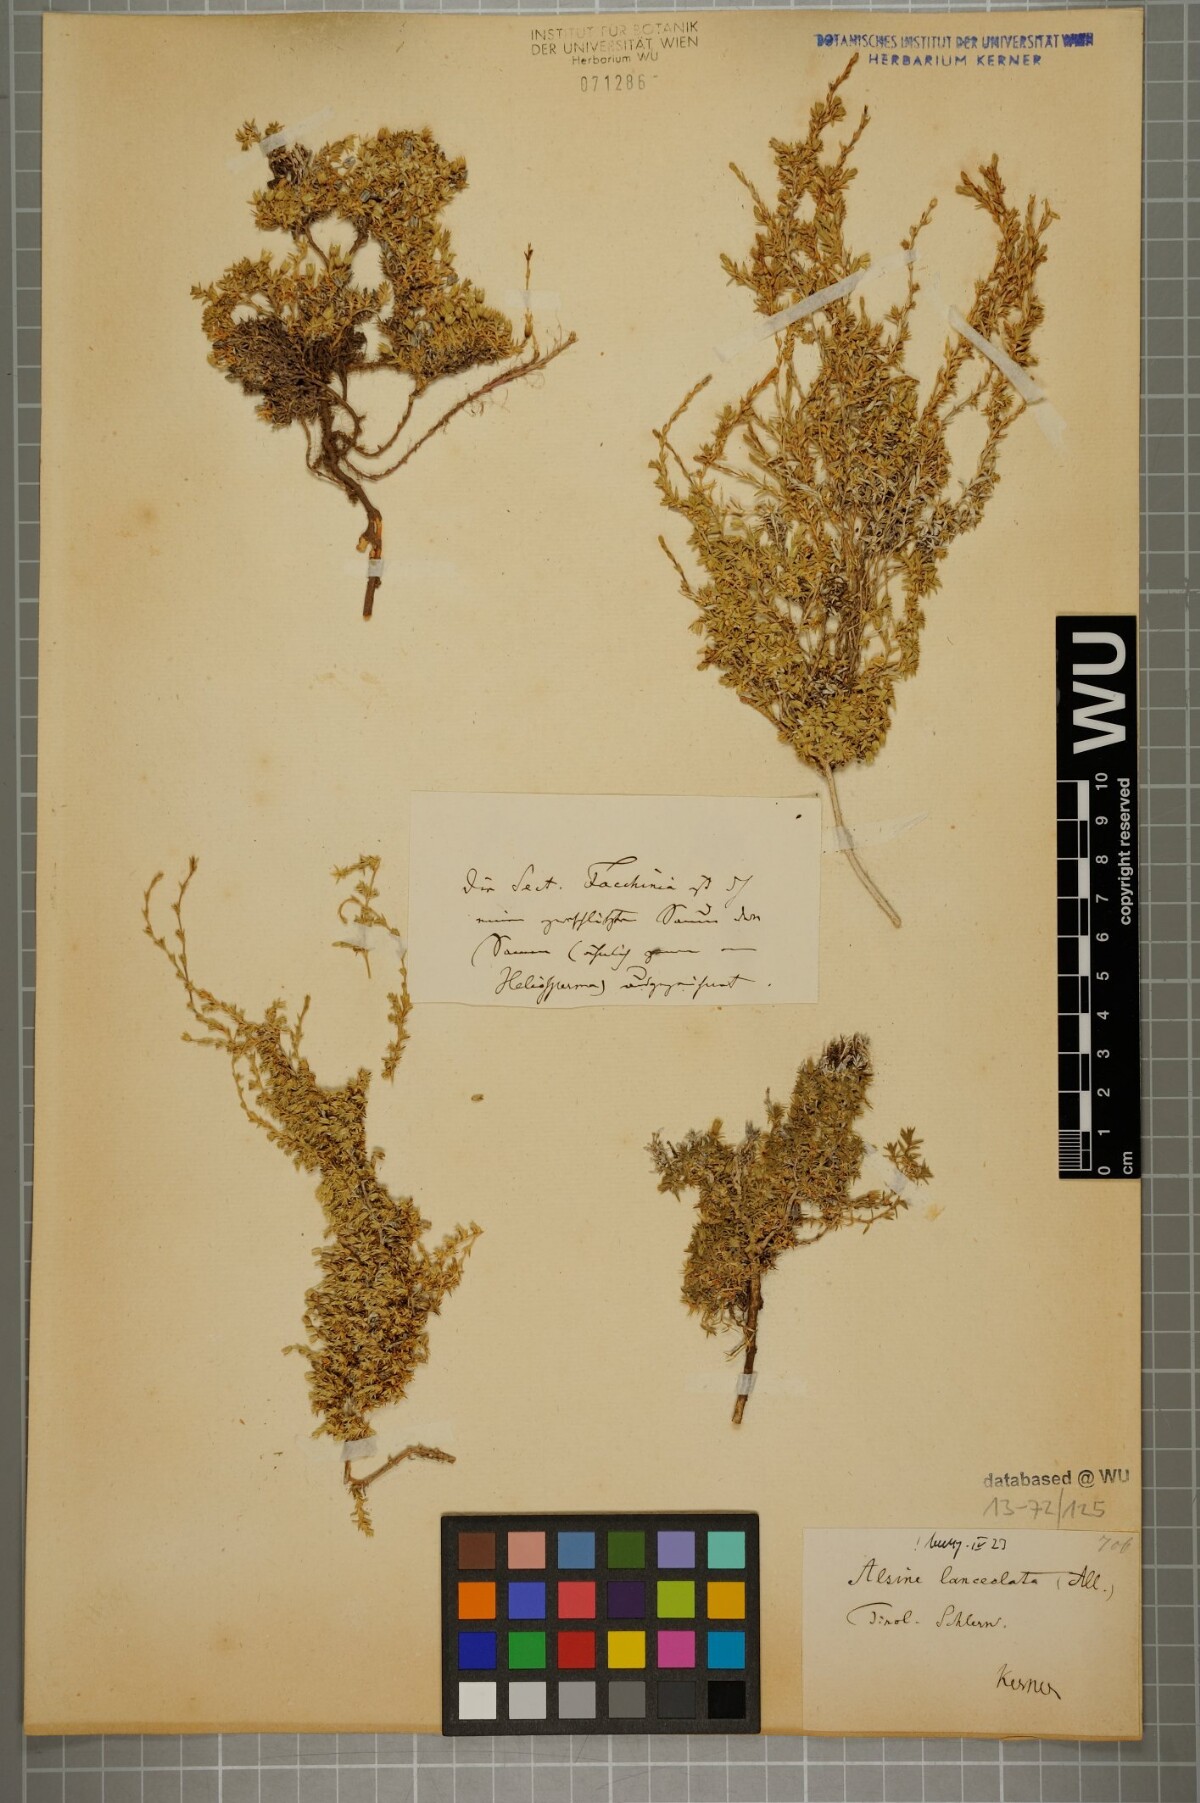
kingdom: Plantae
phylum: Tracheophyta
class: Magnoliopsida
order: Caryophyllales
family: Caryophyllaceae
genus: Facchinia
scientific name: Facchinia rupestris
